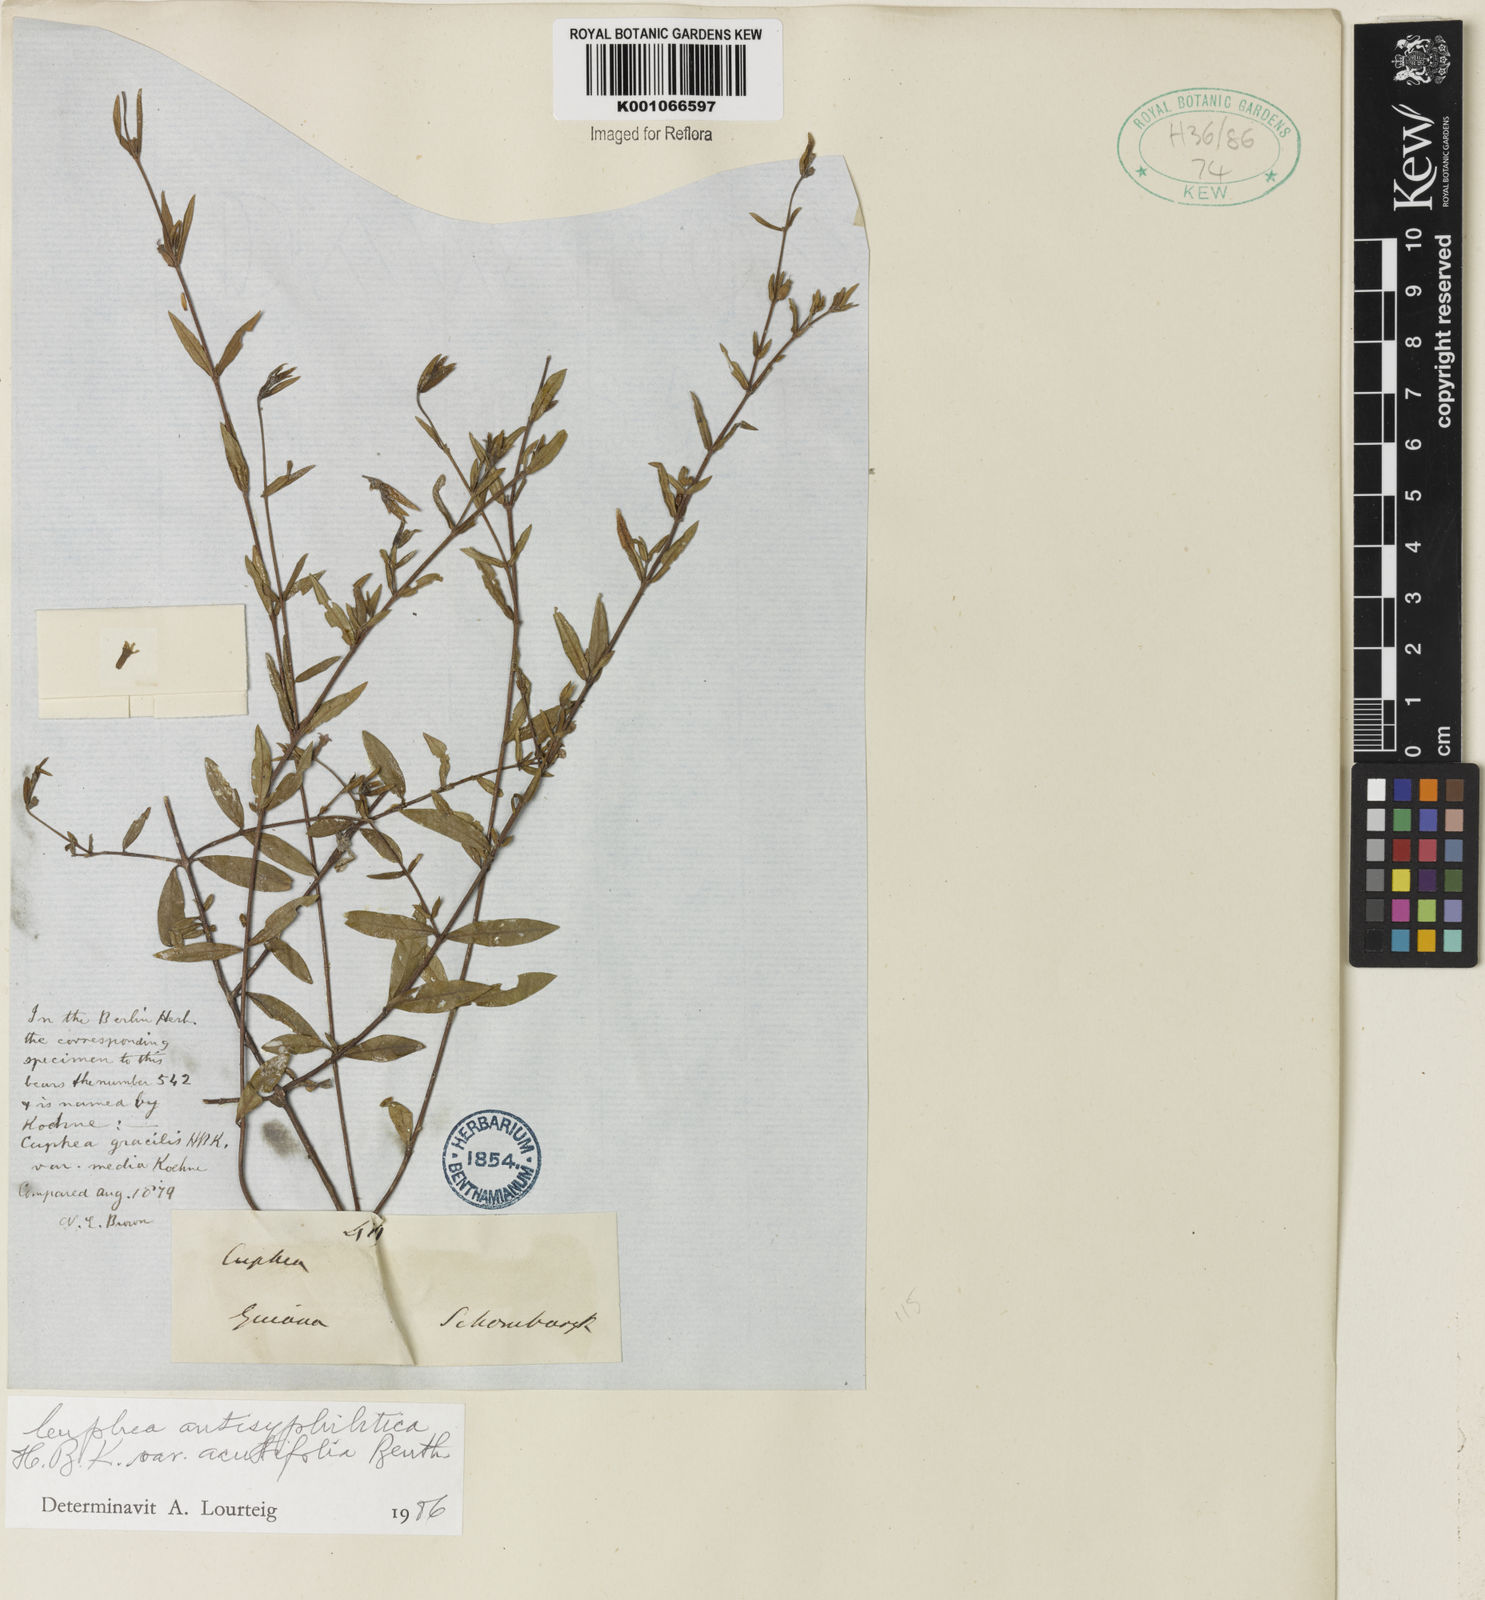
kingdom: Plantae
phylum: Tracheophyta
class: Magnoliopsida
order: Myrtales
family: Lythraceae
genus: Cuphea
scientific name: Cuphea antisyphilitica
